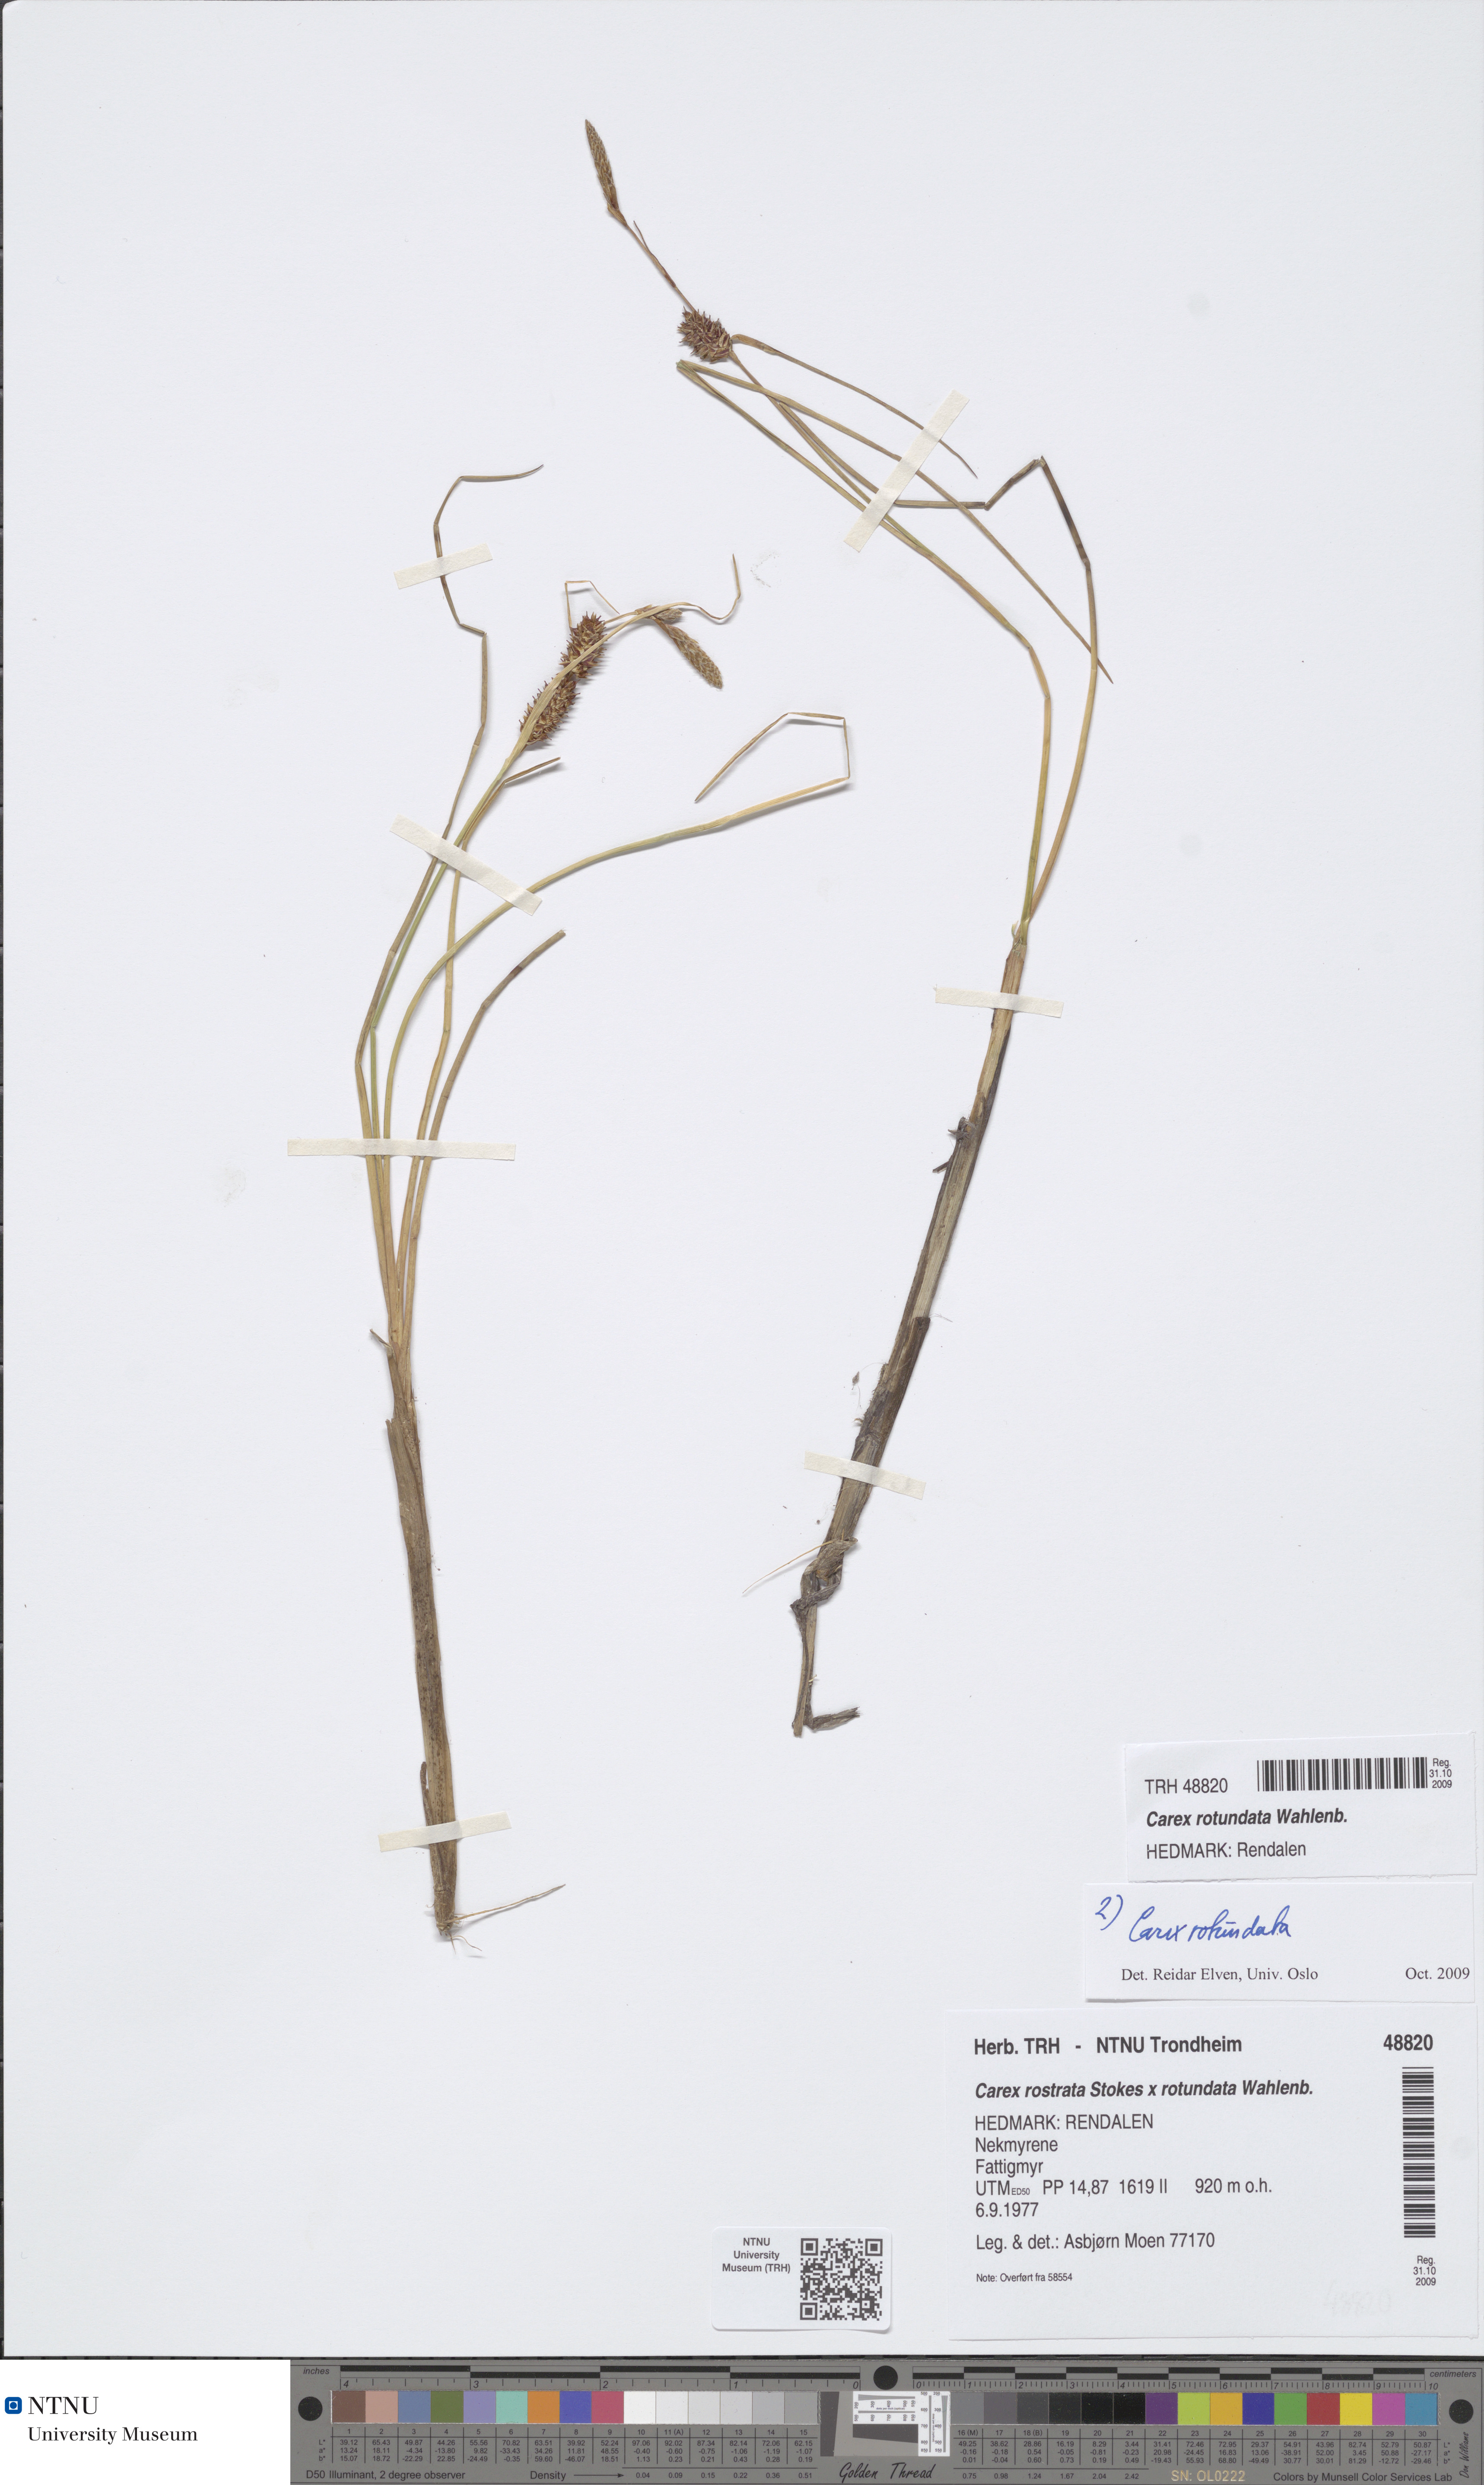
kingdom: Plantae
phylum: Tracheophyta
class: Liliopsida
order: Poales
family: Cyperaceae
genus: Carex
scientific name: Carex rotundata
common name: Round-fruited sedge
